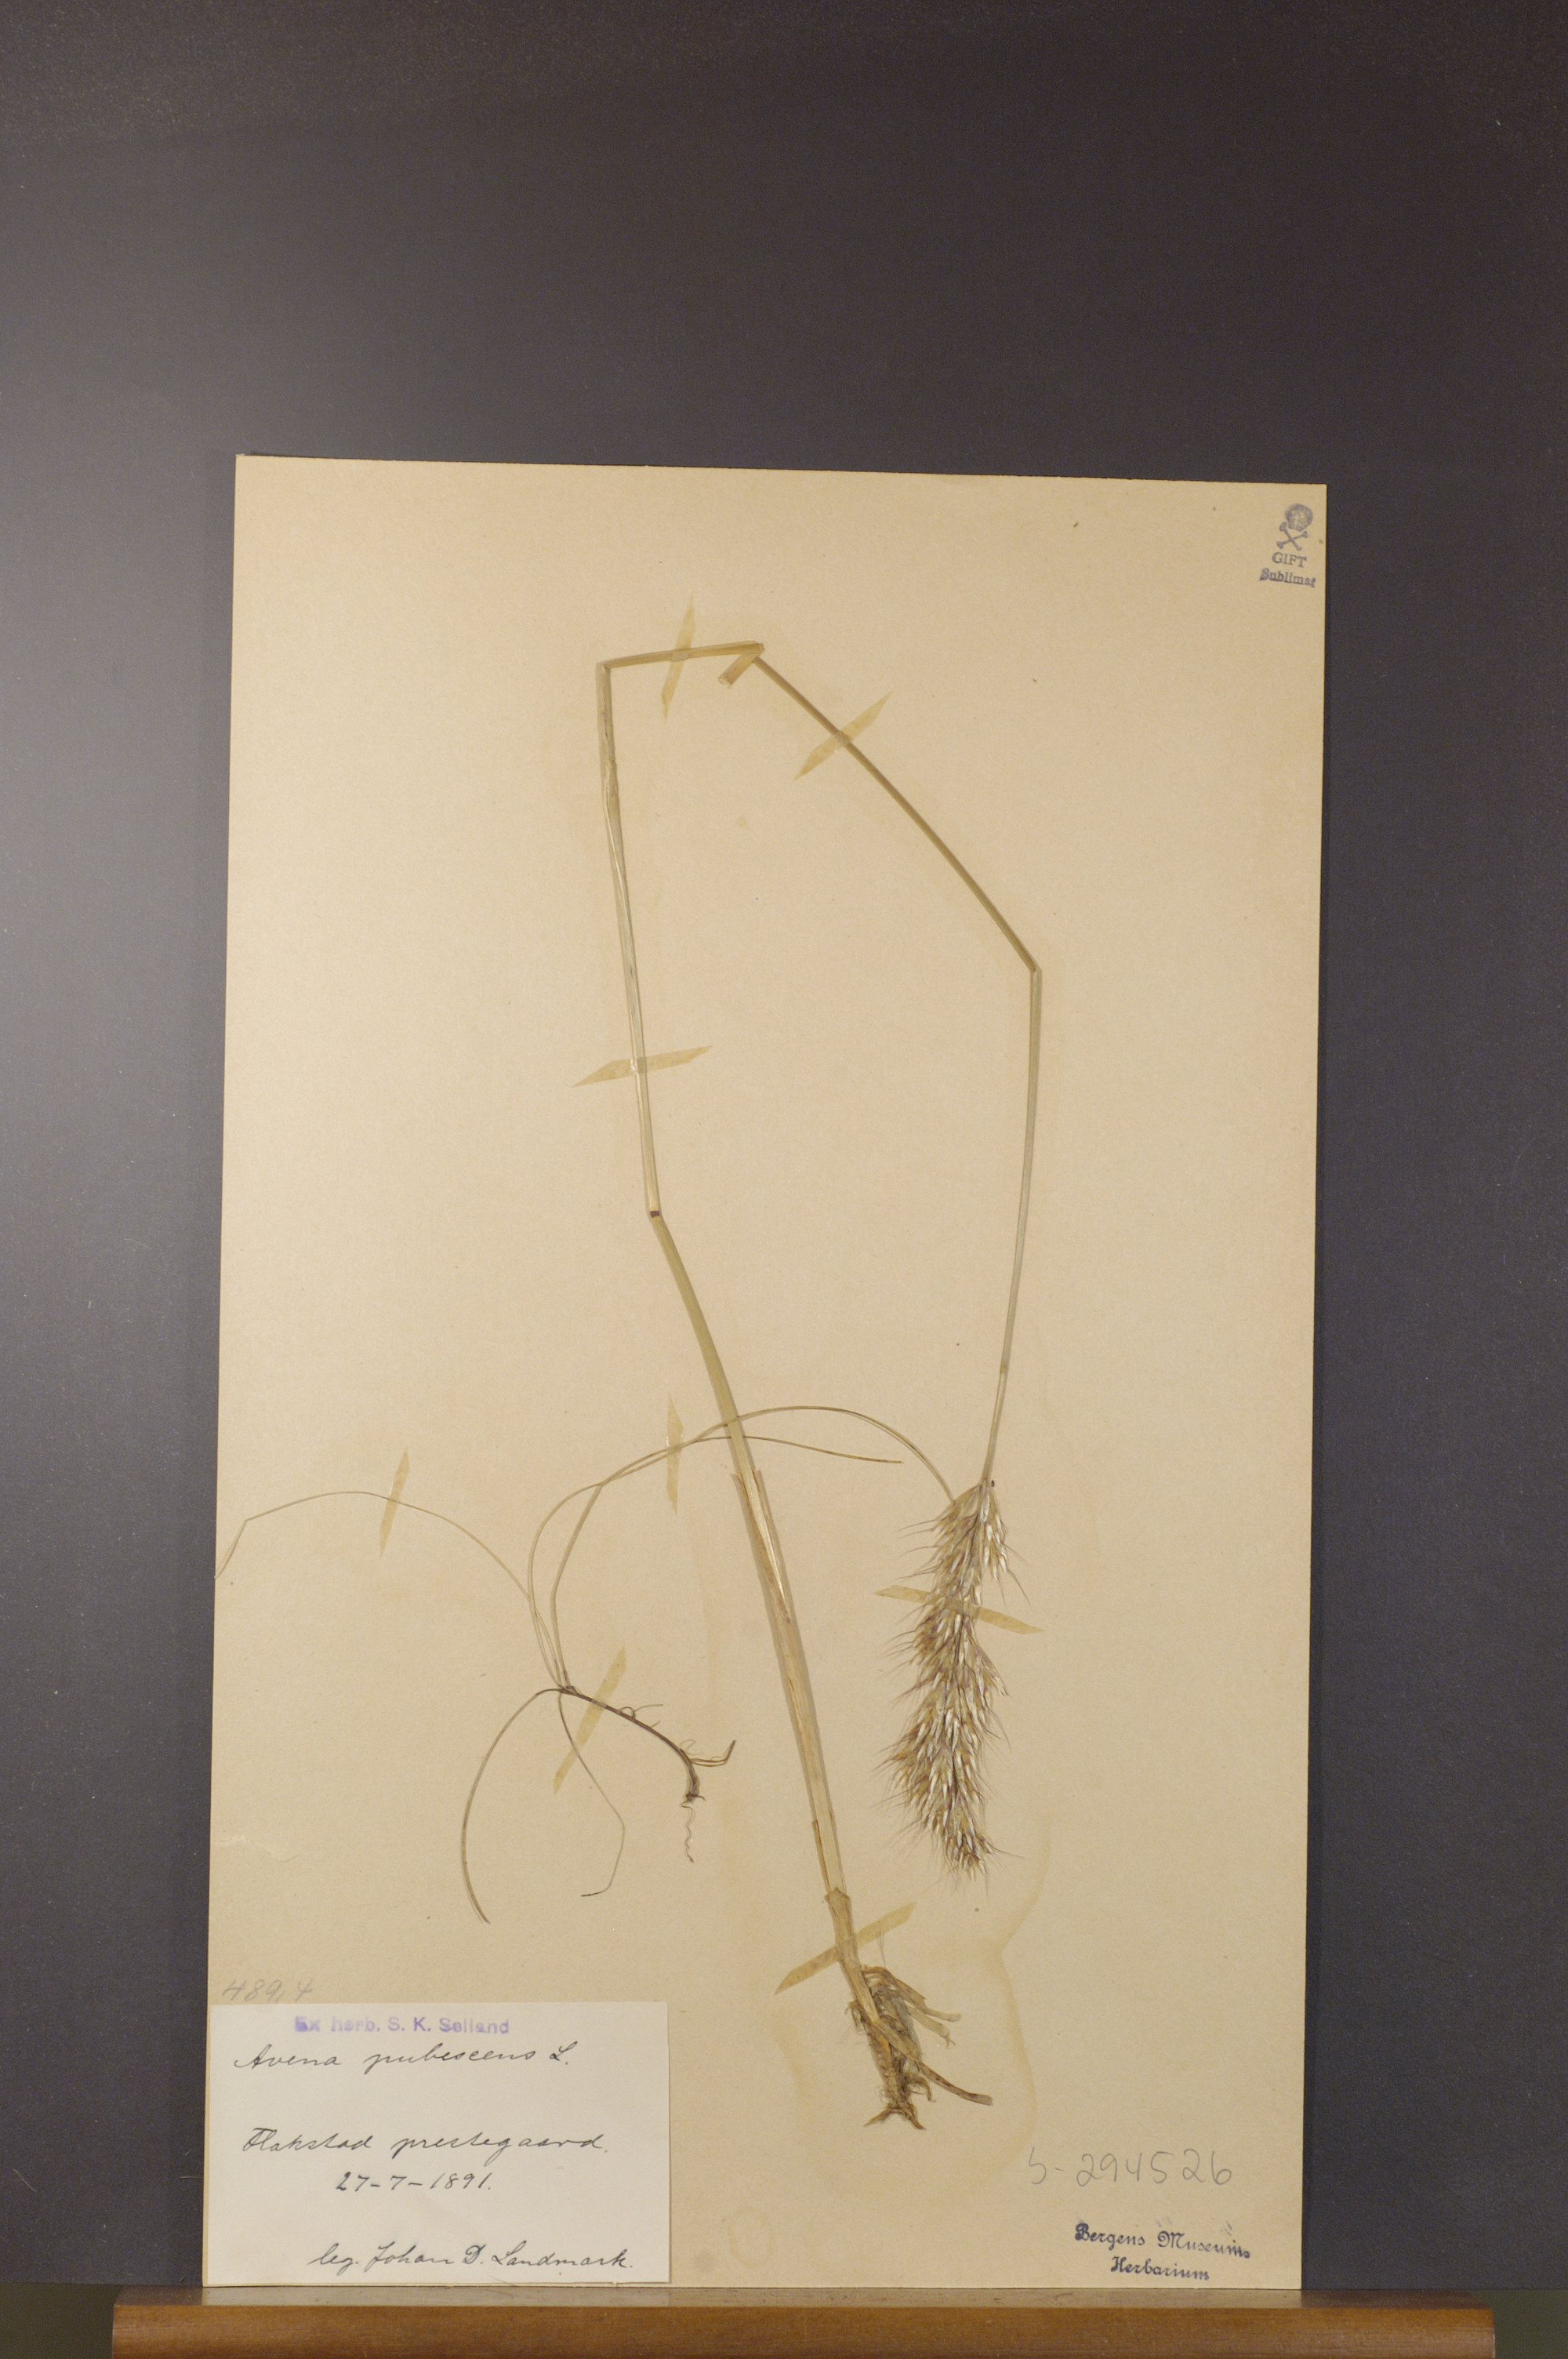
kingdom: Plantae
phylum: Tracheophyta
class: Liliopsida
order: Poales
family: Poaceae
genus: Avenula
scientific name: Avenula pubescens
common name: Downy alpine oatgrass
